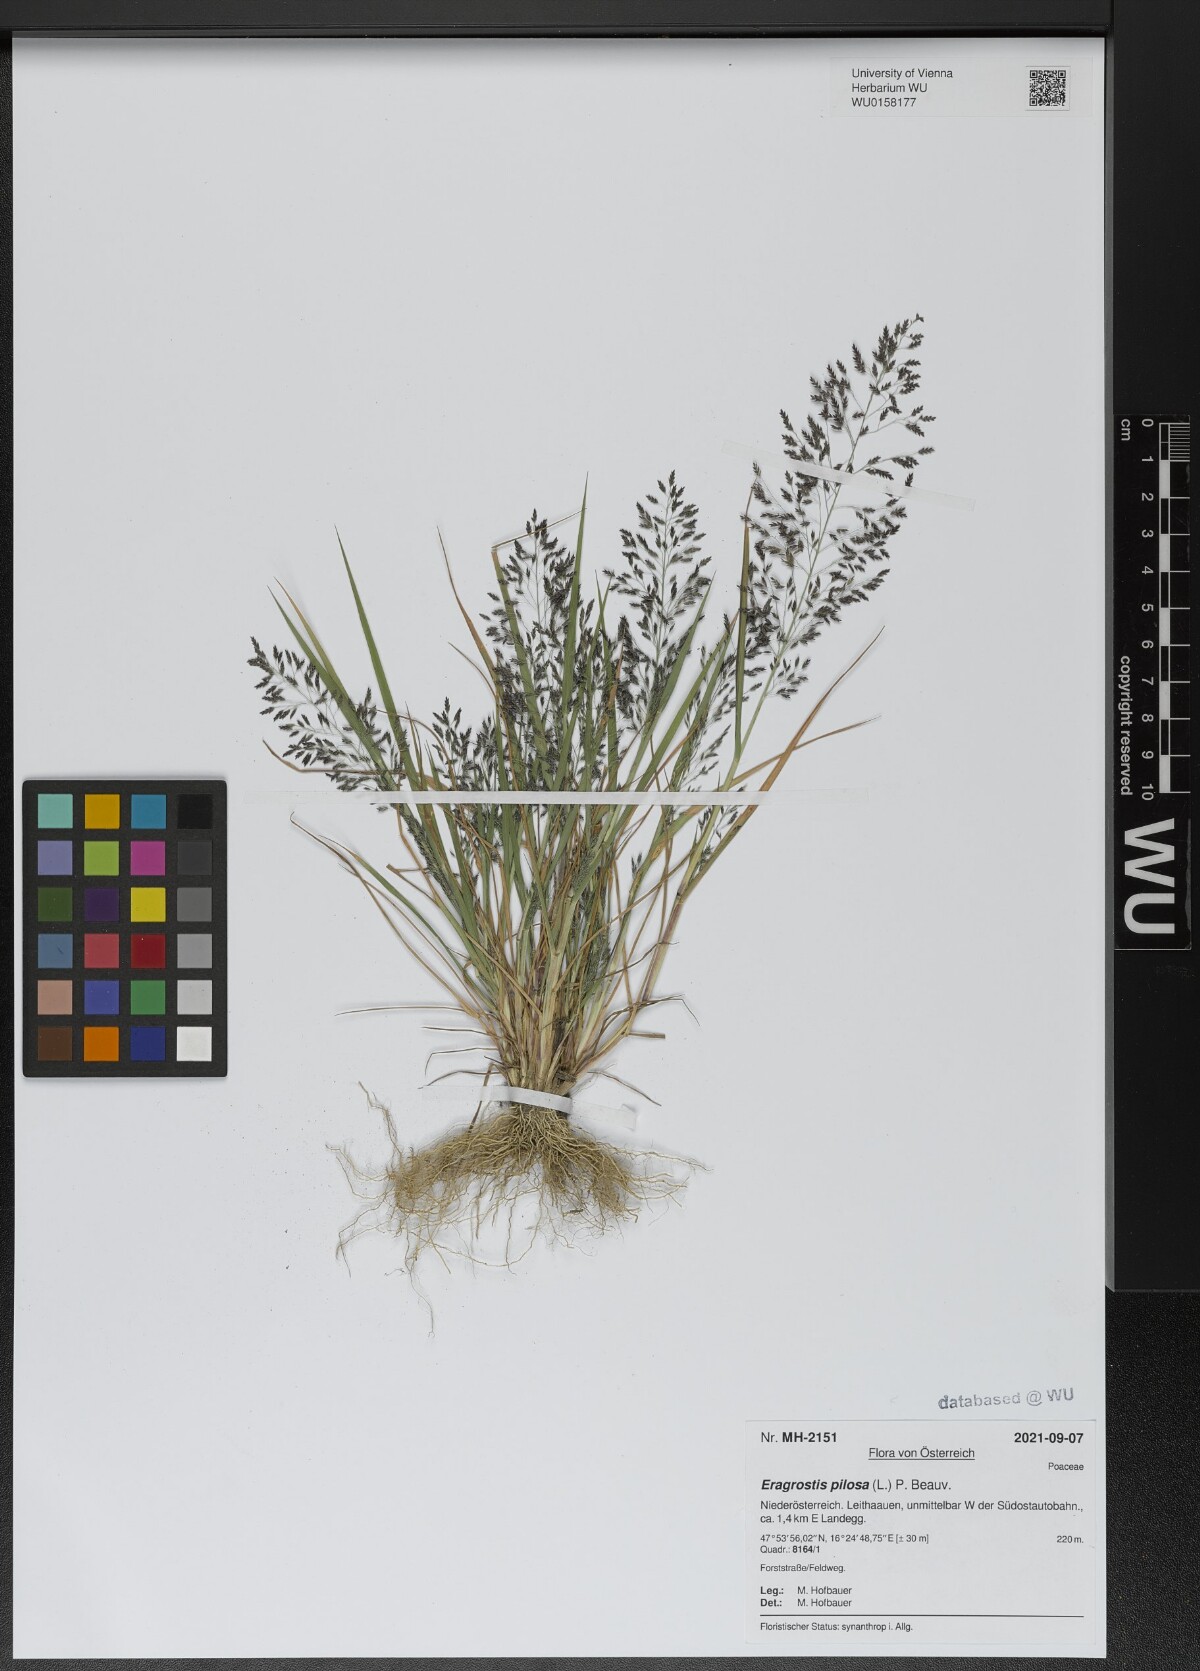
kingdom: Plantae
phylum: Tracheophyta
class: Liliopsida
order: Poales
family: Poaceae
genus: Eragrostis
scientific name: Eragrostis pilosa
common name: Indian lovegrass
